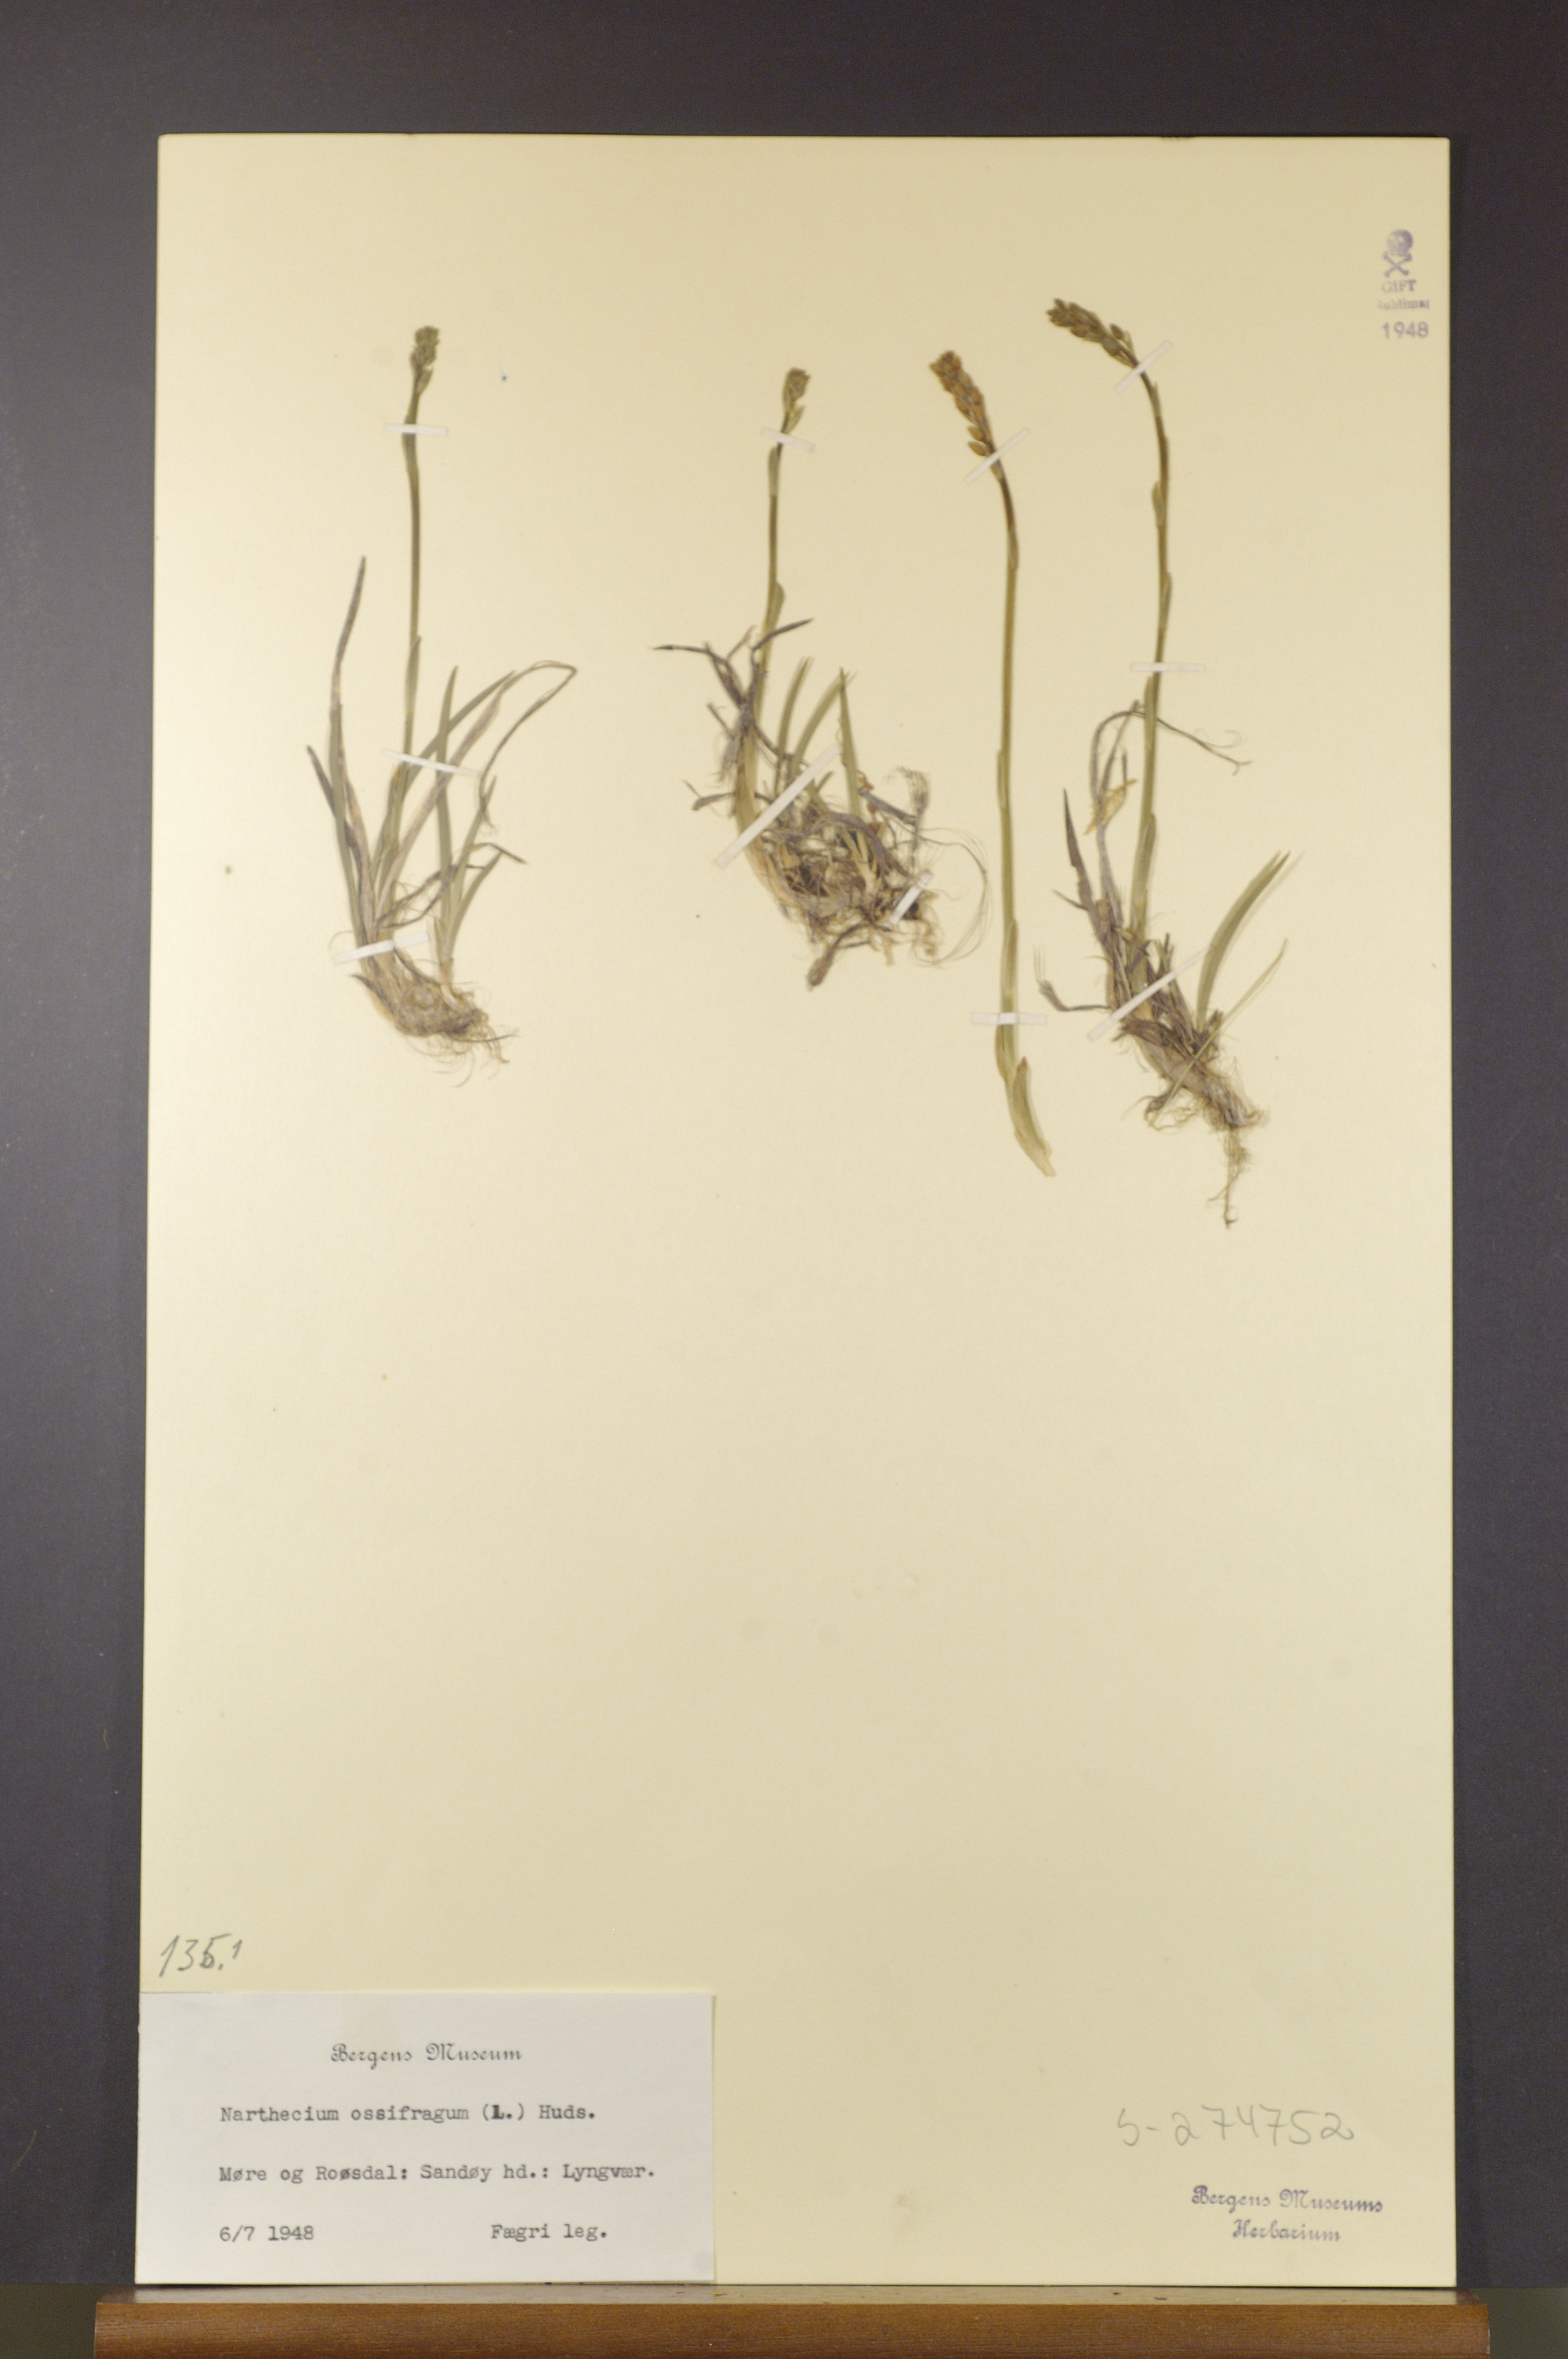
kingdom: Plantae
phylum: Tracheophyta
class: Liliopsida
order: Dioscoreales
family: Nartheciaceae
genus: Narthecium
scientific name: Narthecium ossifragum
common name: Bog asphodel
